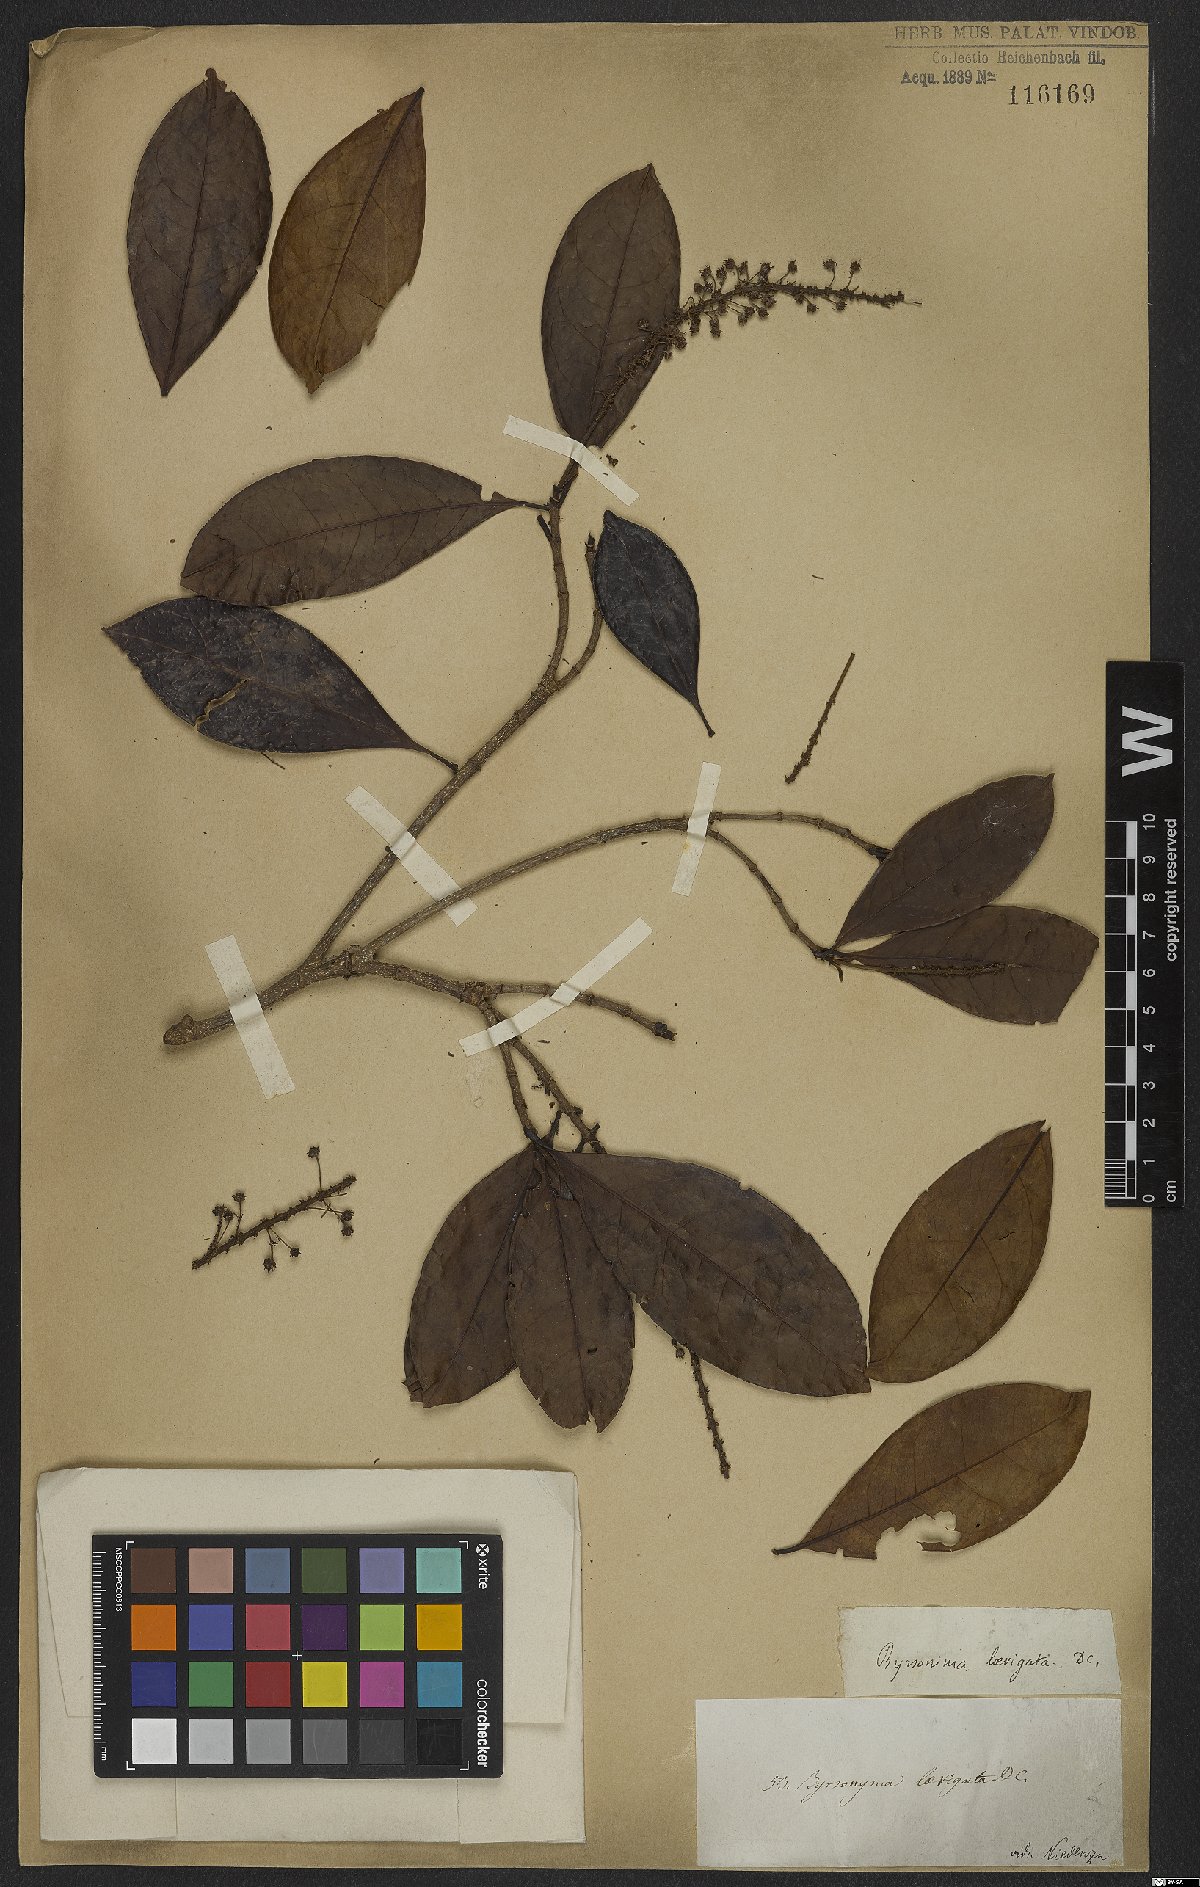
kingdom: Plantae
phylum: Tracheophyta
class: Magnoliopsida
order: Malpighiales
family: Malpighiaceae
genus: Byrsonima
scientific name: Byrsonima laevigata
